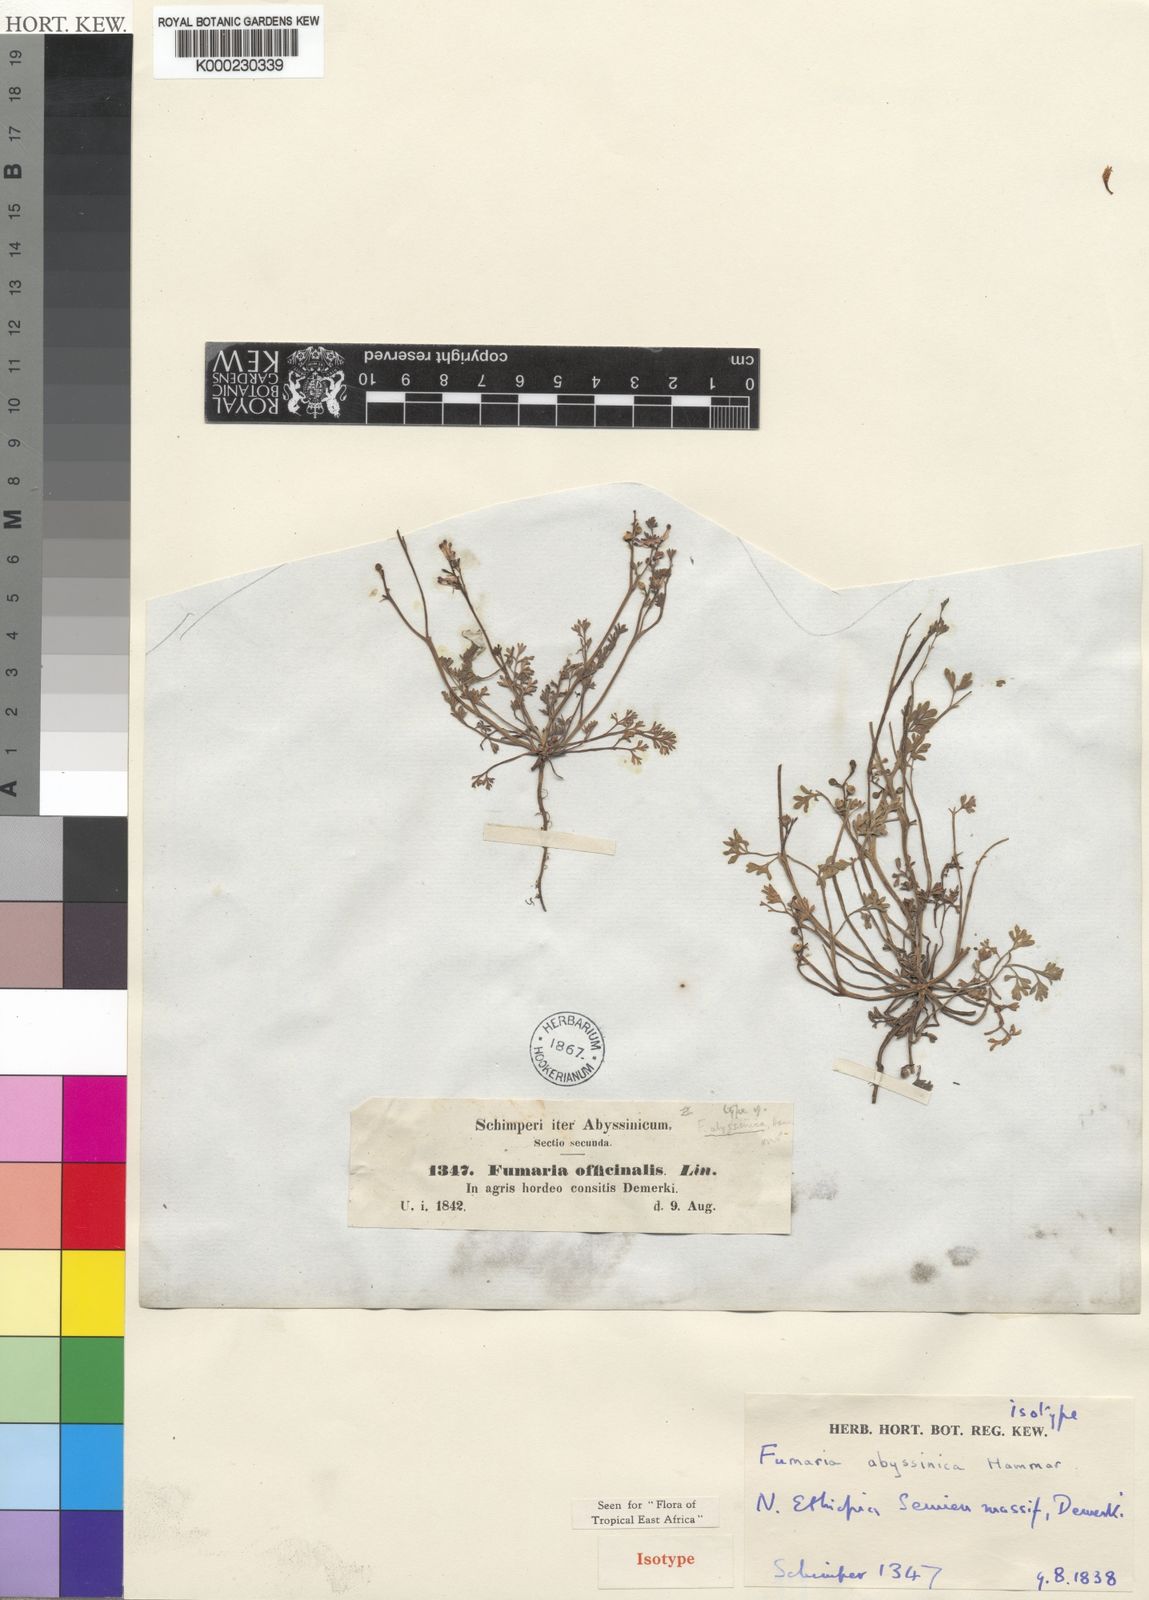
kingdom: Plantae
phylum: Tracheophyta
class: Magnoliopsida
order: Ranunculales
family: Papaveraceae
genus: Fumaria
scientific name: Fumaria abyssinica
